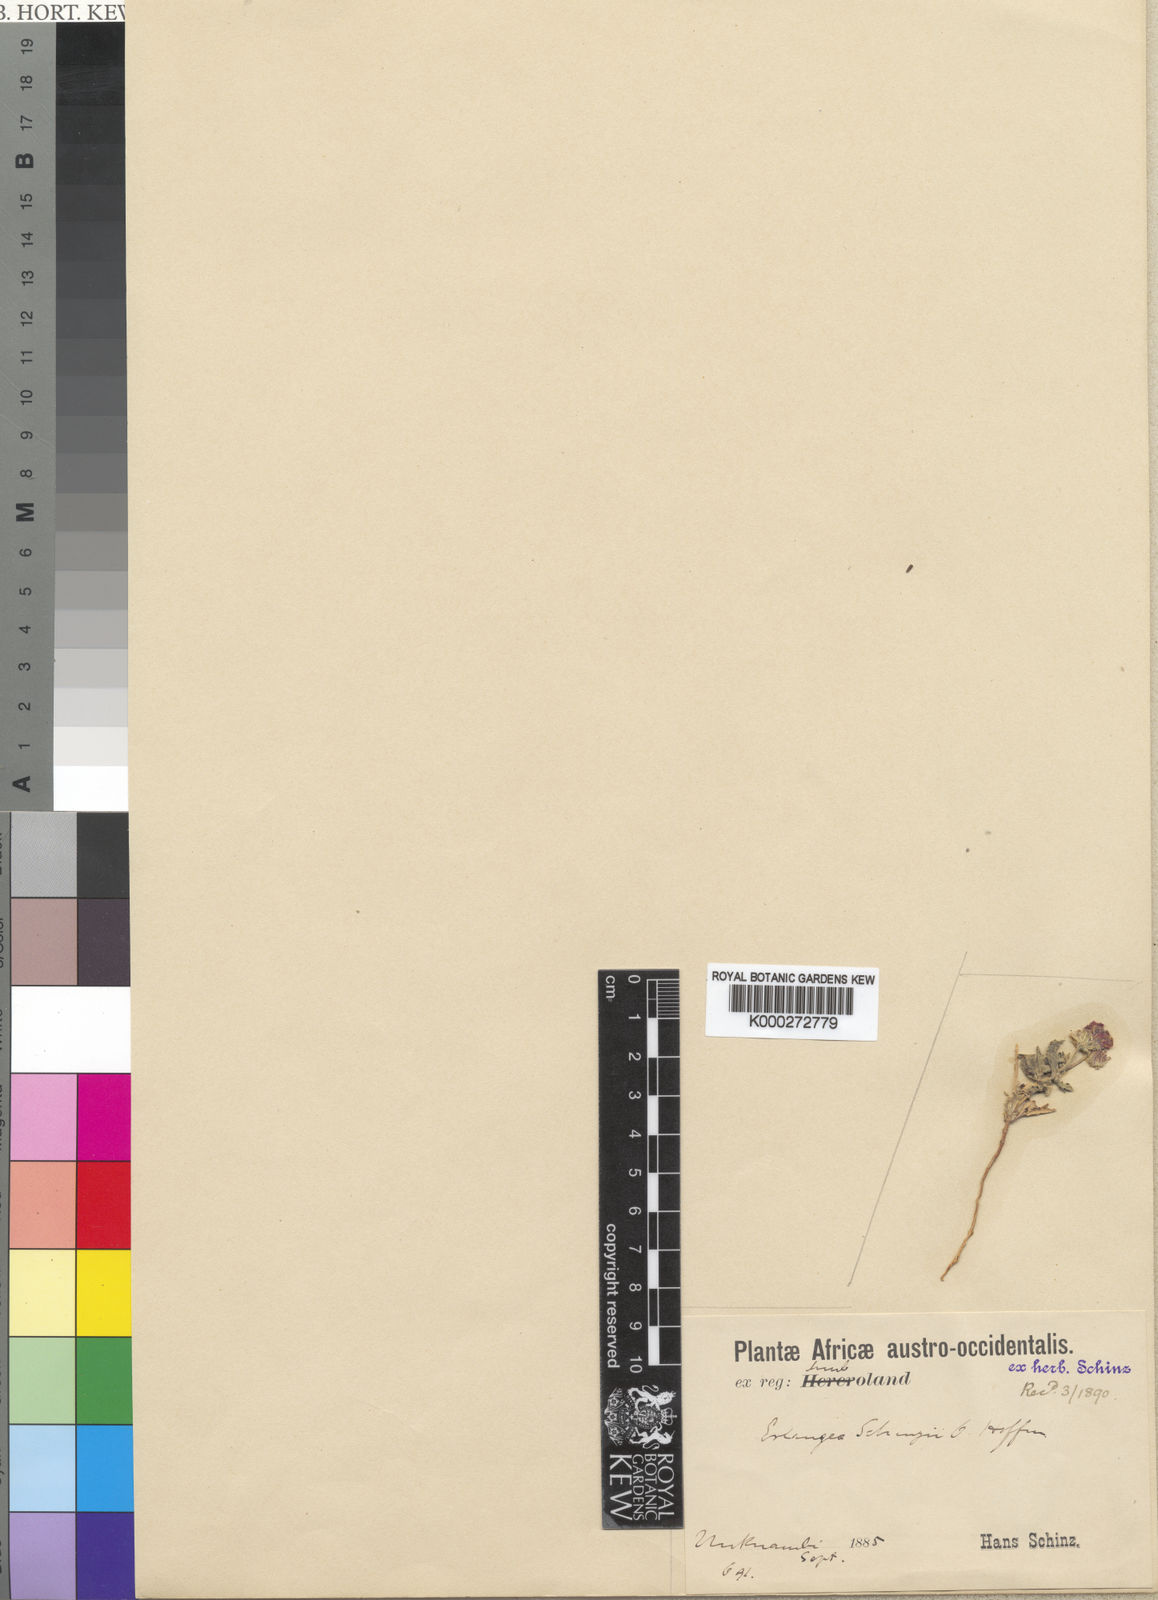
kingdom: Plantae
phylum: Tracheophyta
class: Magnoliopsida
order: Asterales
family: Asteraceae
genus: Erlangea
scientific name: Erlangea misera
